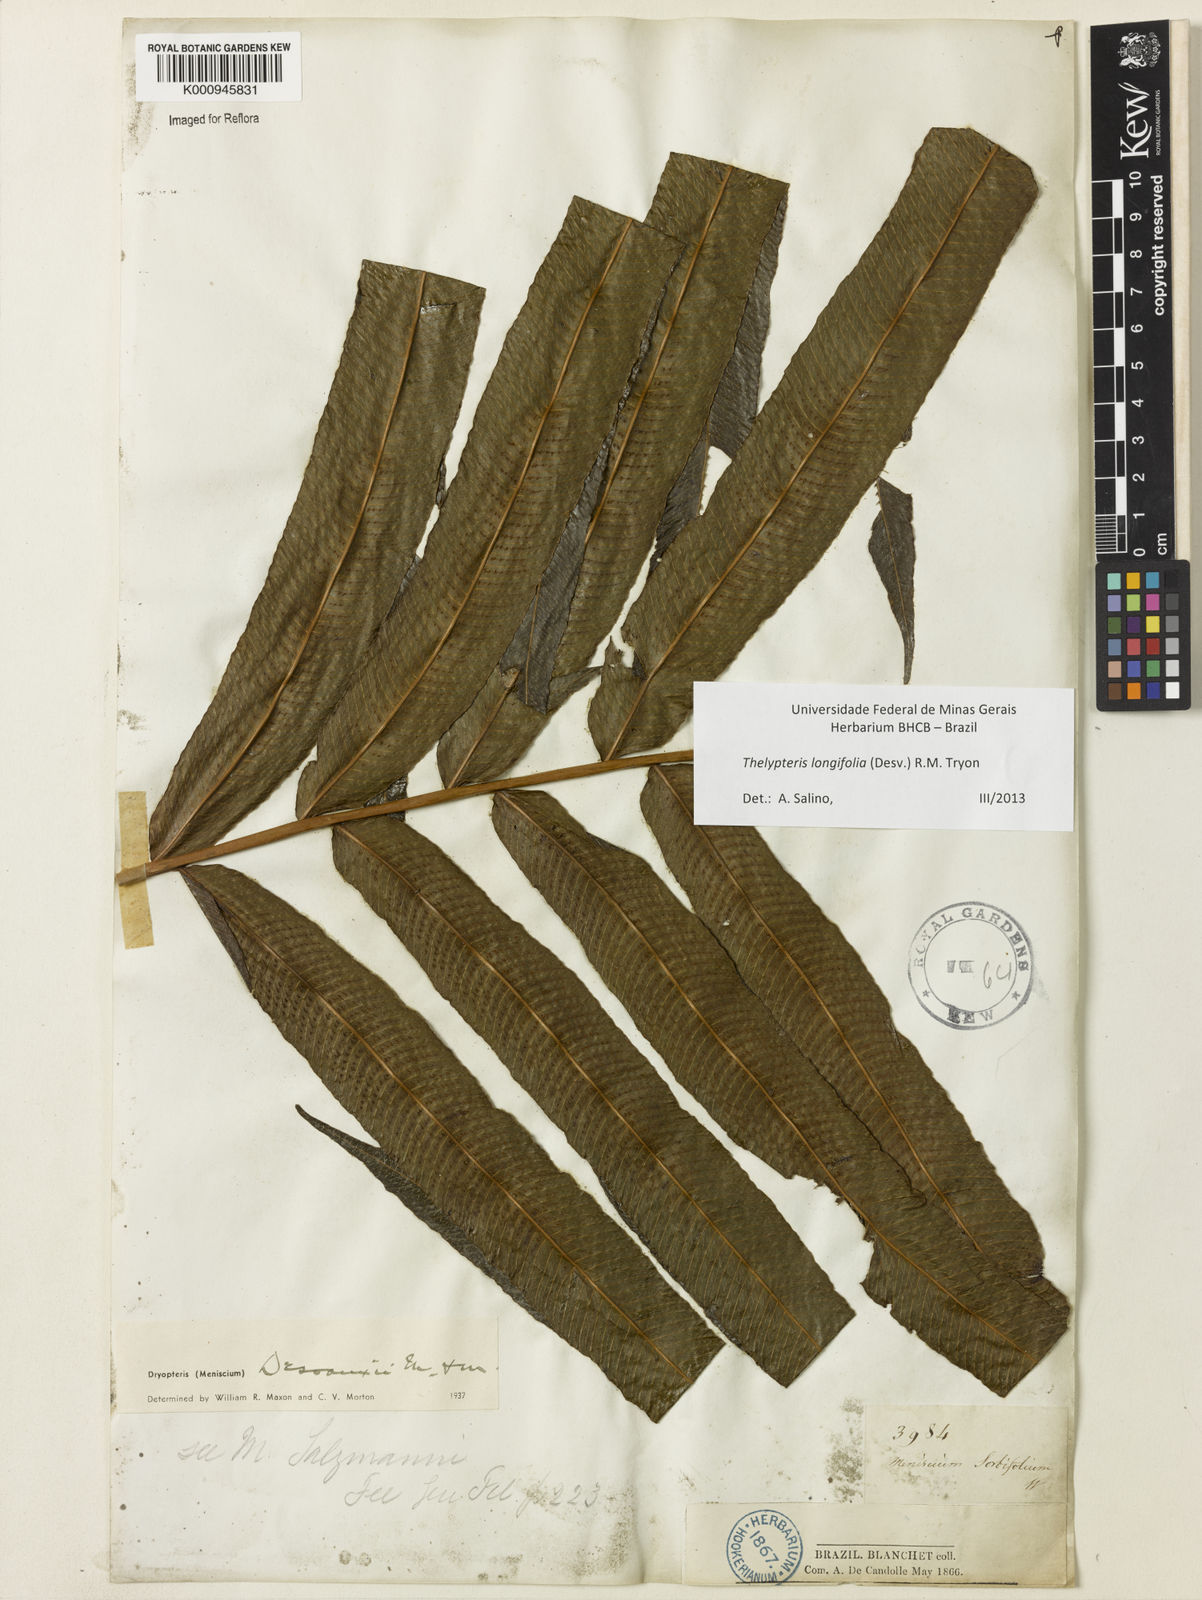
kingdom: Plantae
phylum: Tracheophyta
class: Polypodiopsida
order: Polypodiales
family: Thelypteridaceae
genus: Meniscium
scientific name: Meniscium longifolium
